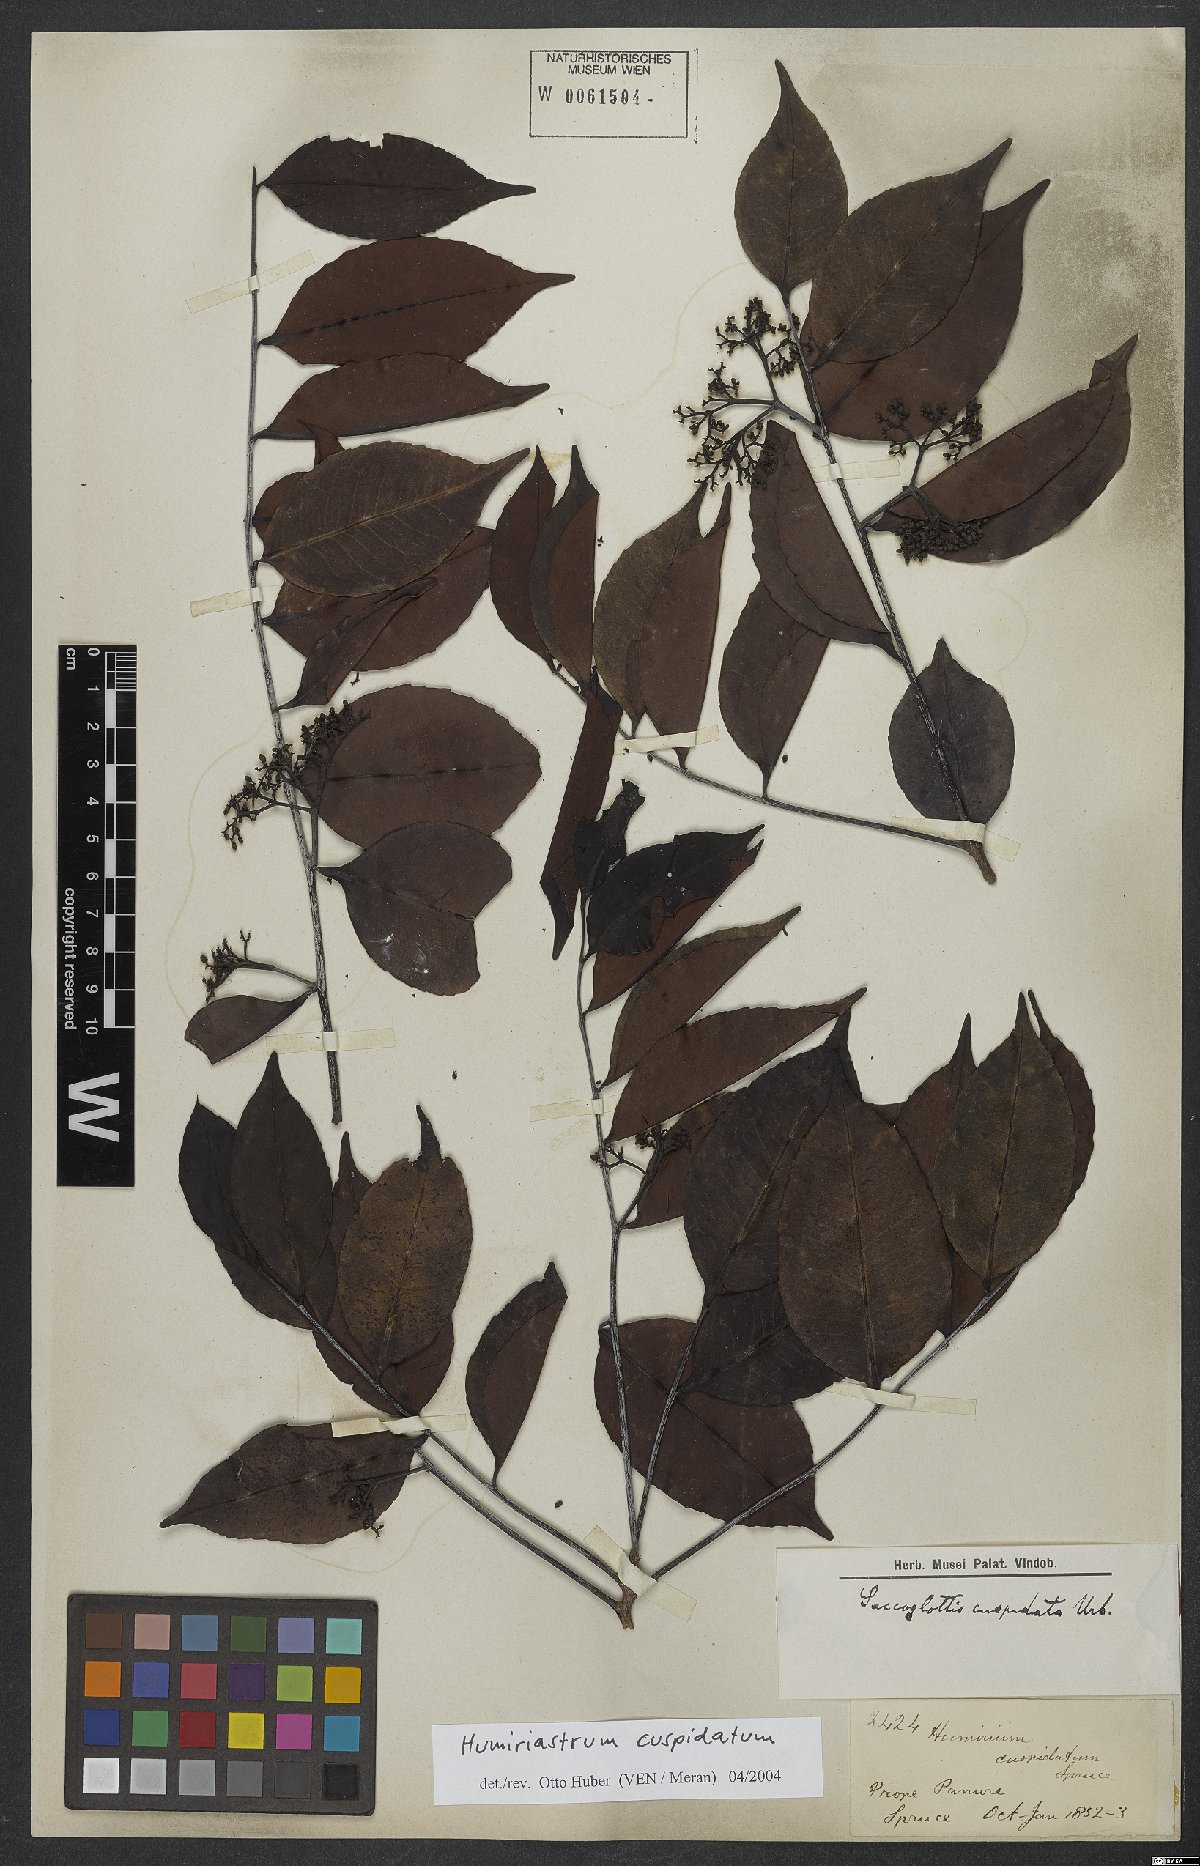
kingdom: Plantae
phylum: Tracheophyta
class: Magnoliopsida
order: Malpighiales
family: Humiriaceae
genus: Humiriastrum
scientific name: Humiriastrum cuspidatum
